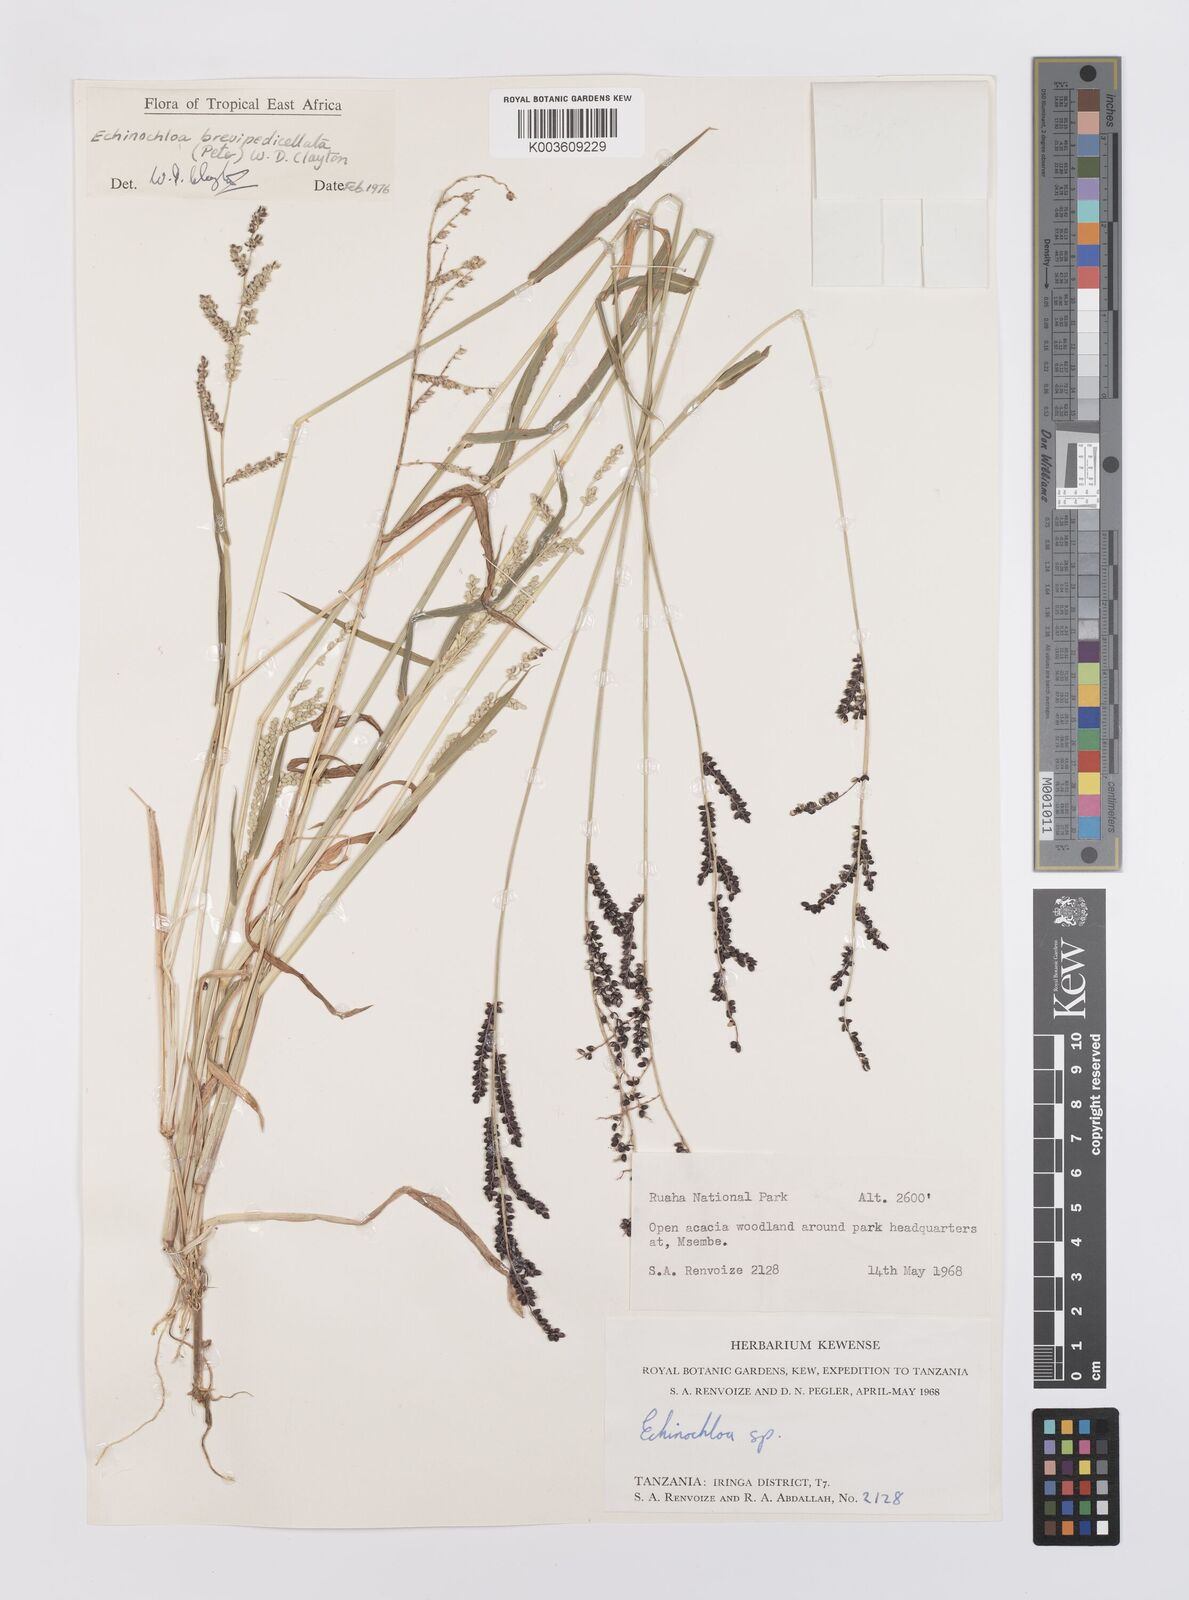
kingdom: Plantae
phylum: Tracheophyta
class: Liliopsida
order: Poales
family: Poaceae
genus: Echinochloa
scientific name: Echinochloa brevipedicellata
